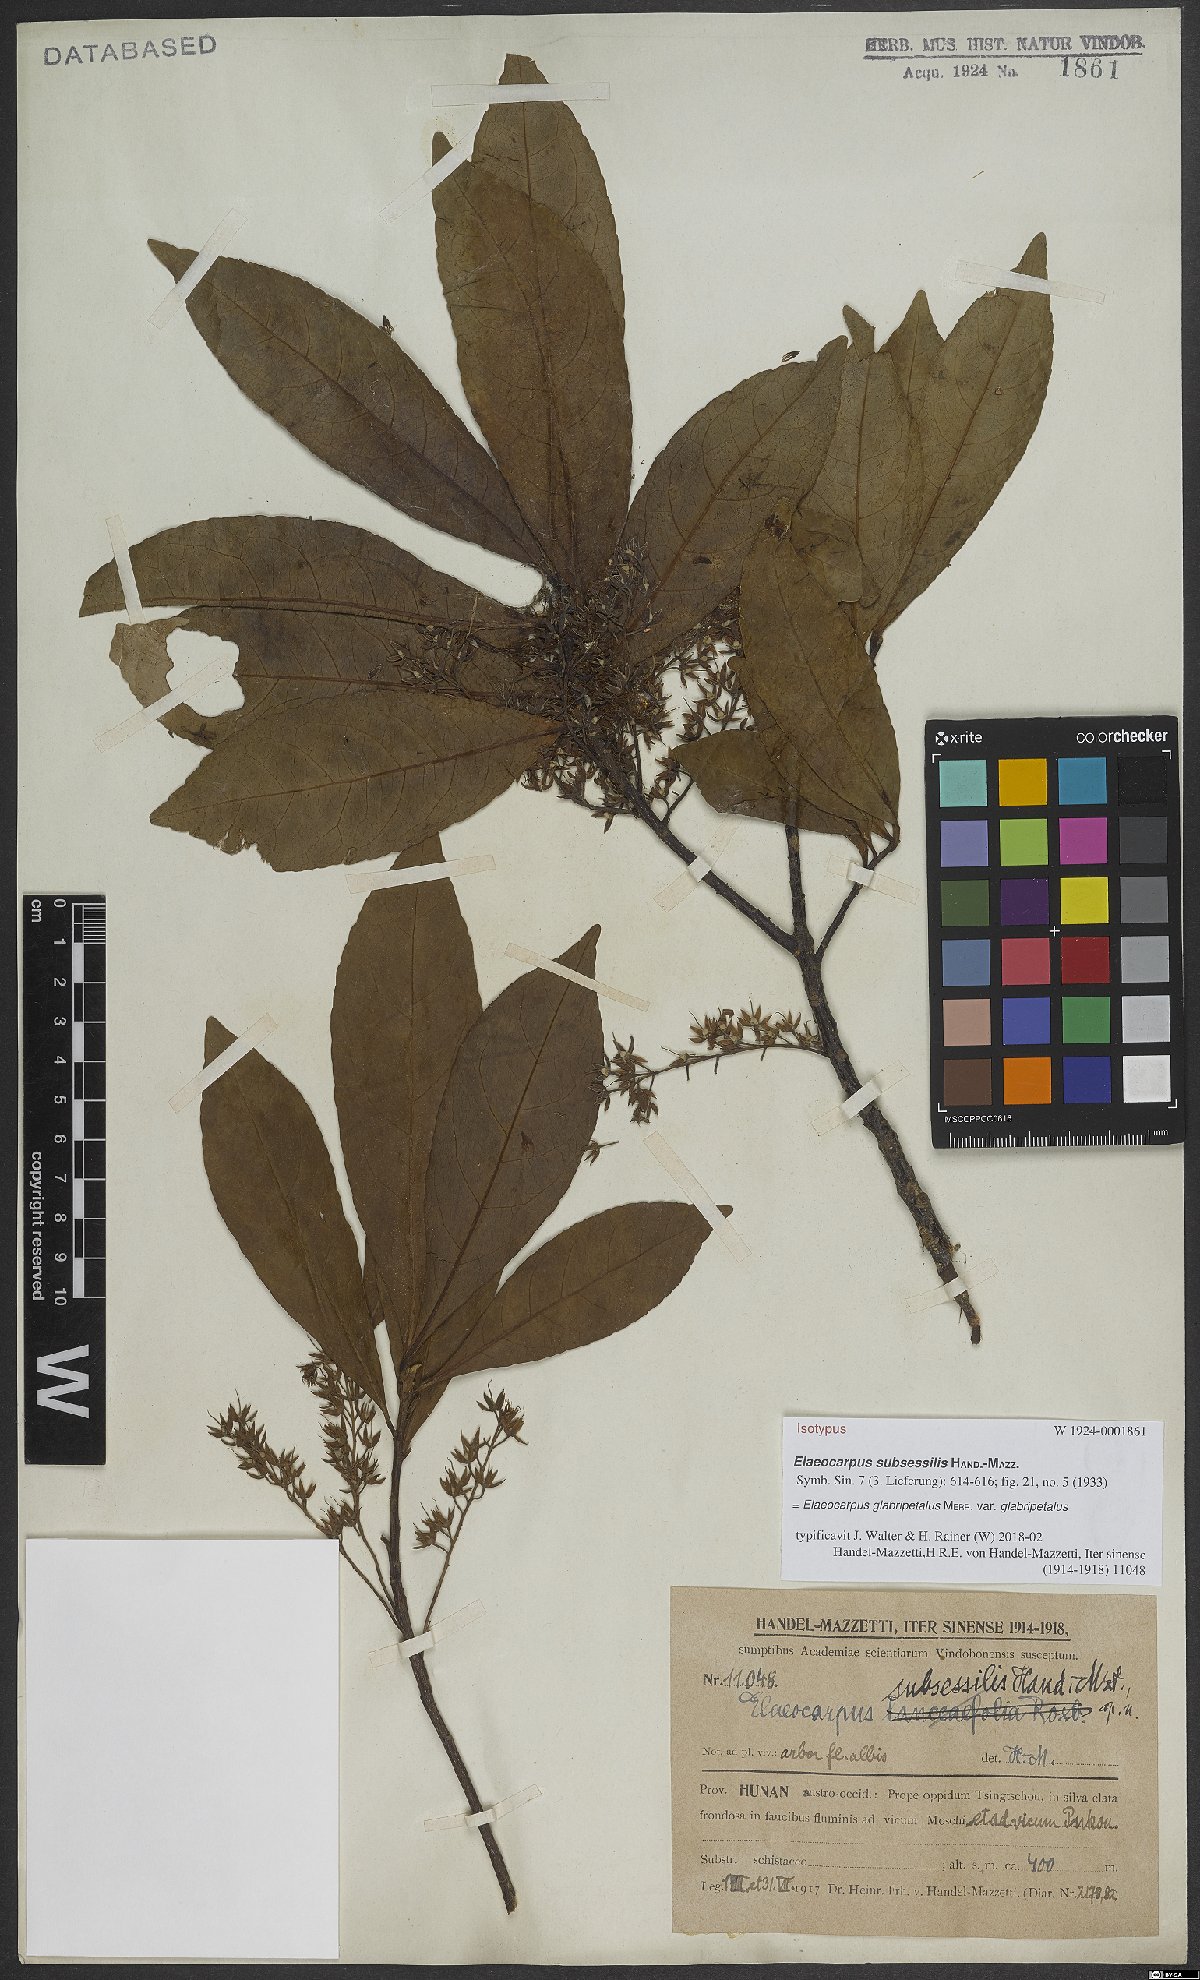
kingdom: Plantae
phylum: Tracheophyta
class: Magnoliopsida
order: Oxalidales
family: Elaeocarpaceae
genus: Elaeocarpus
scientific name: Elaeocarpus glabripetalus
